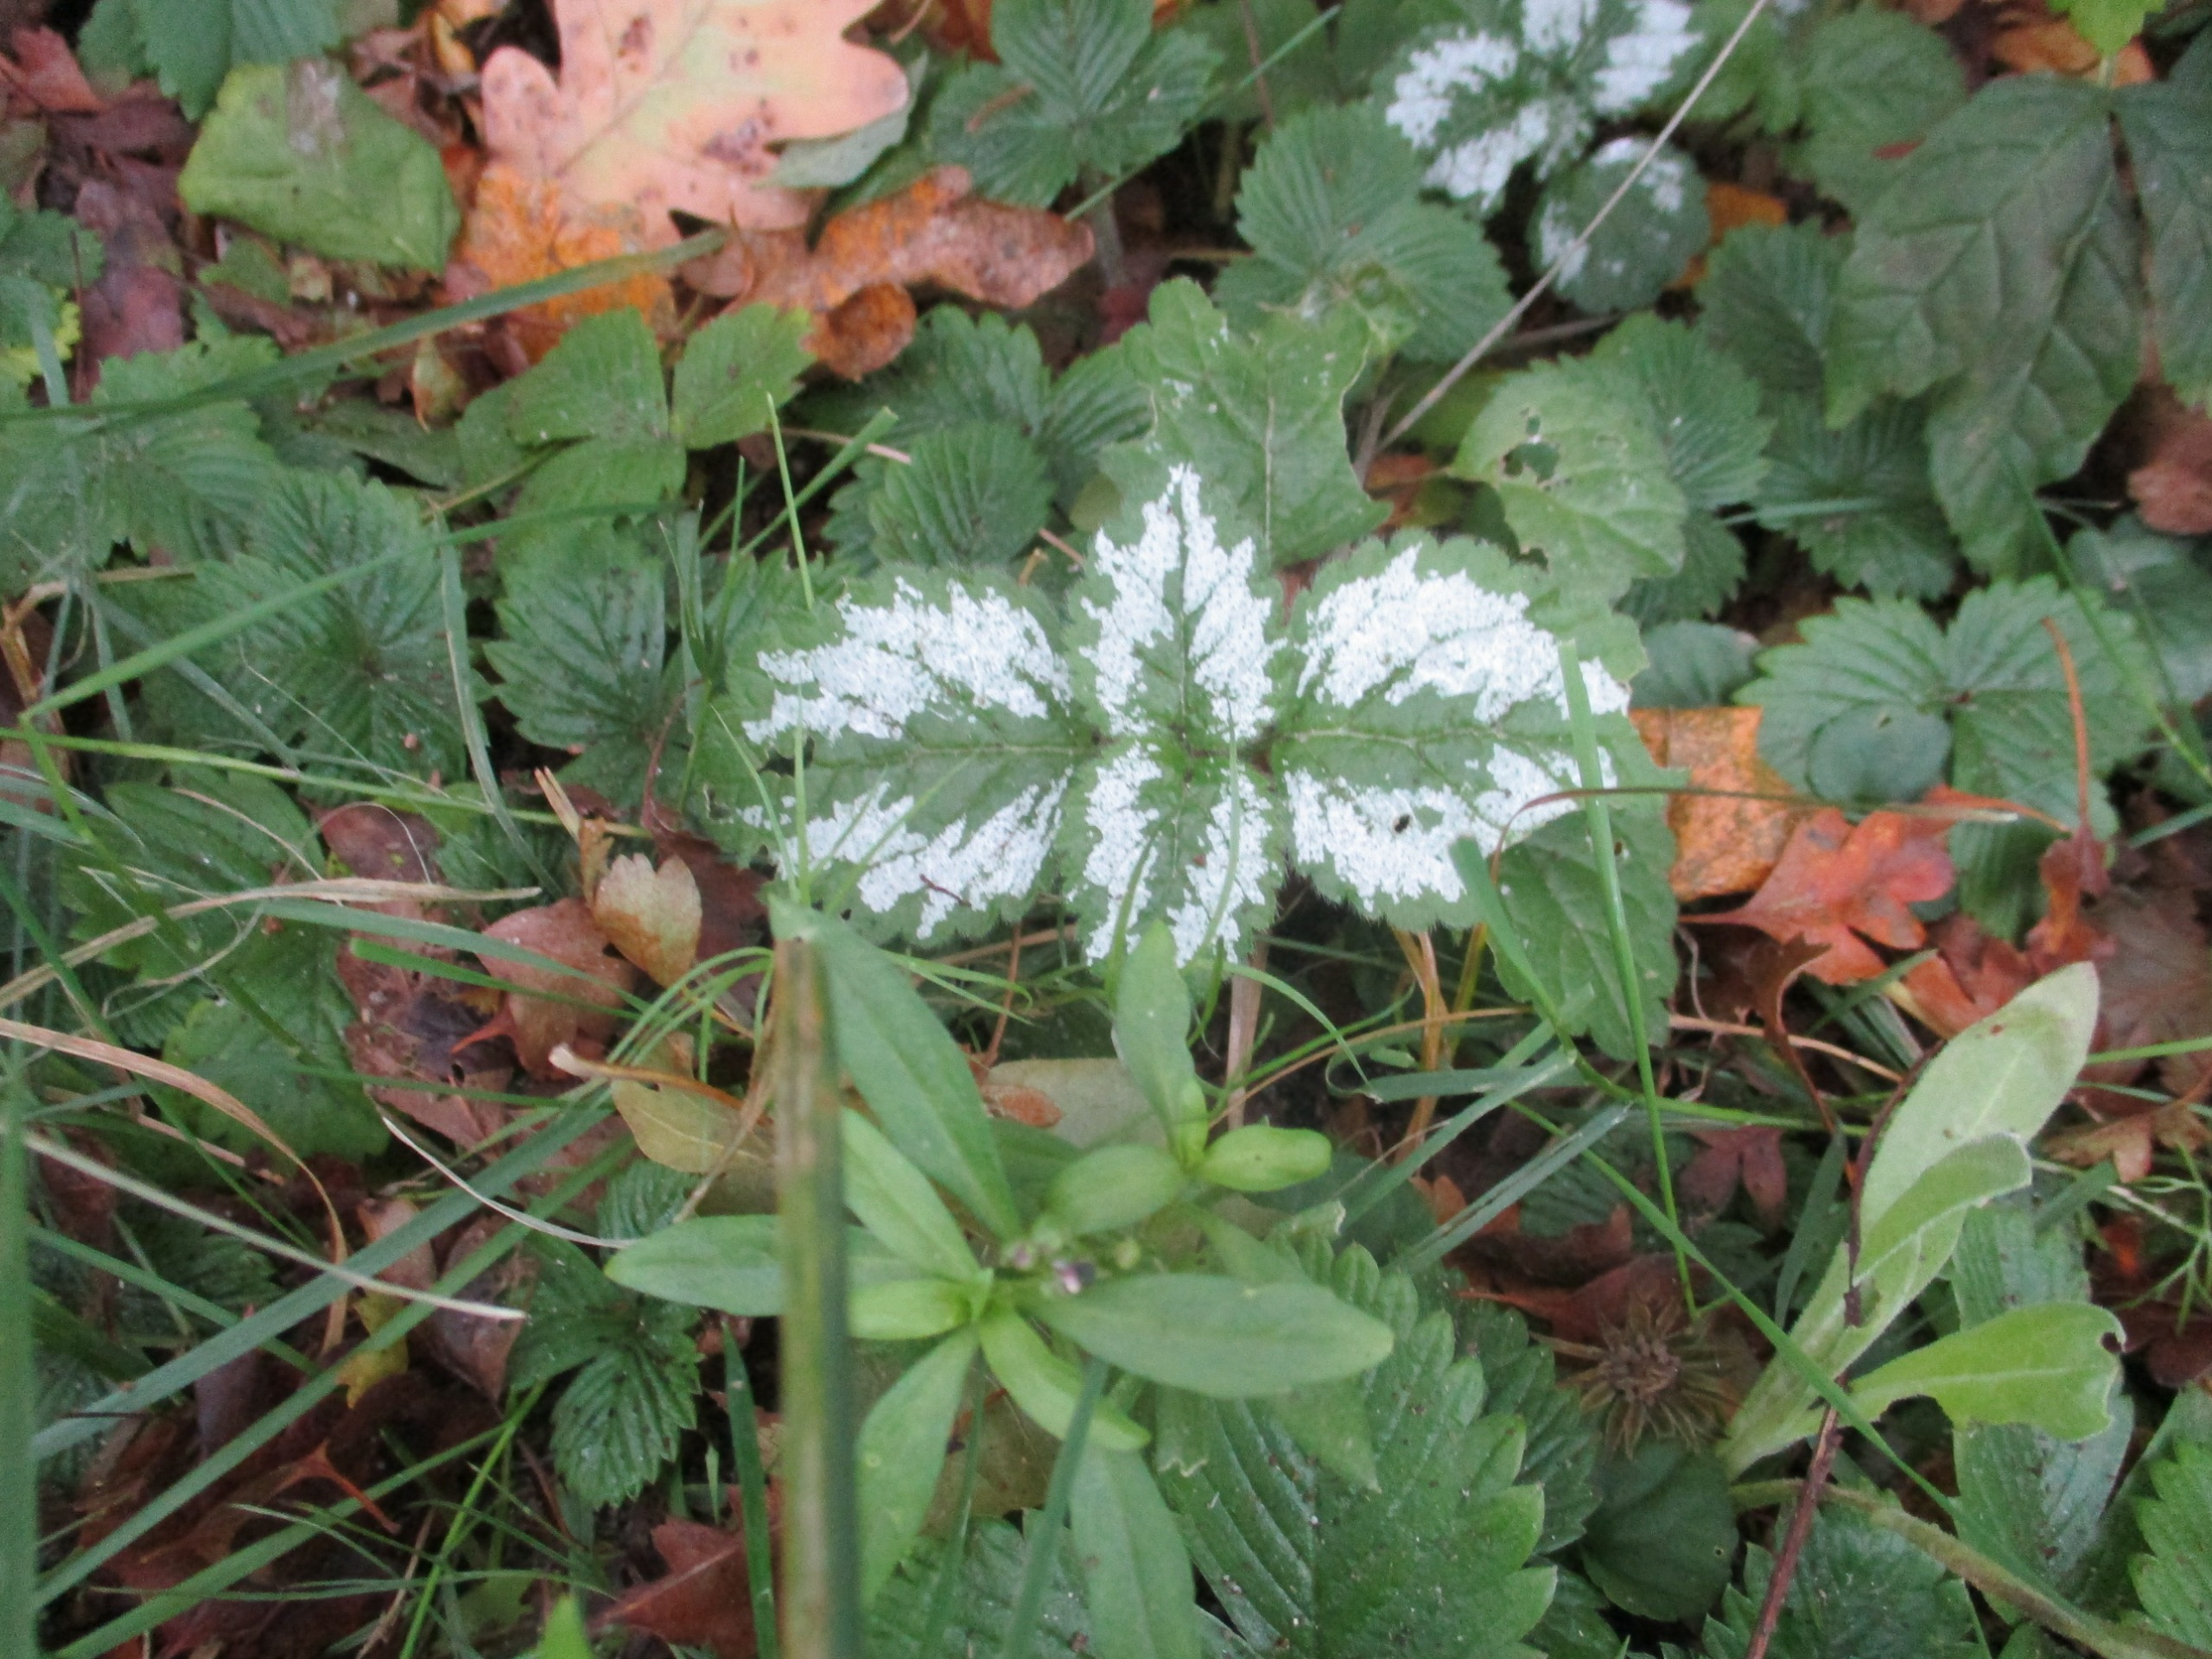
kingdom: Plantae
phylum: Tracheophyta
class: Magnoliopsida
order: Lamiales
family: Lamiaceae
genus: Lamium
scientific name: Lamium galeobdolon
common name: Have-guldnælde
